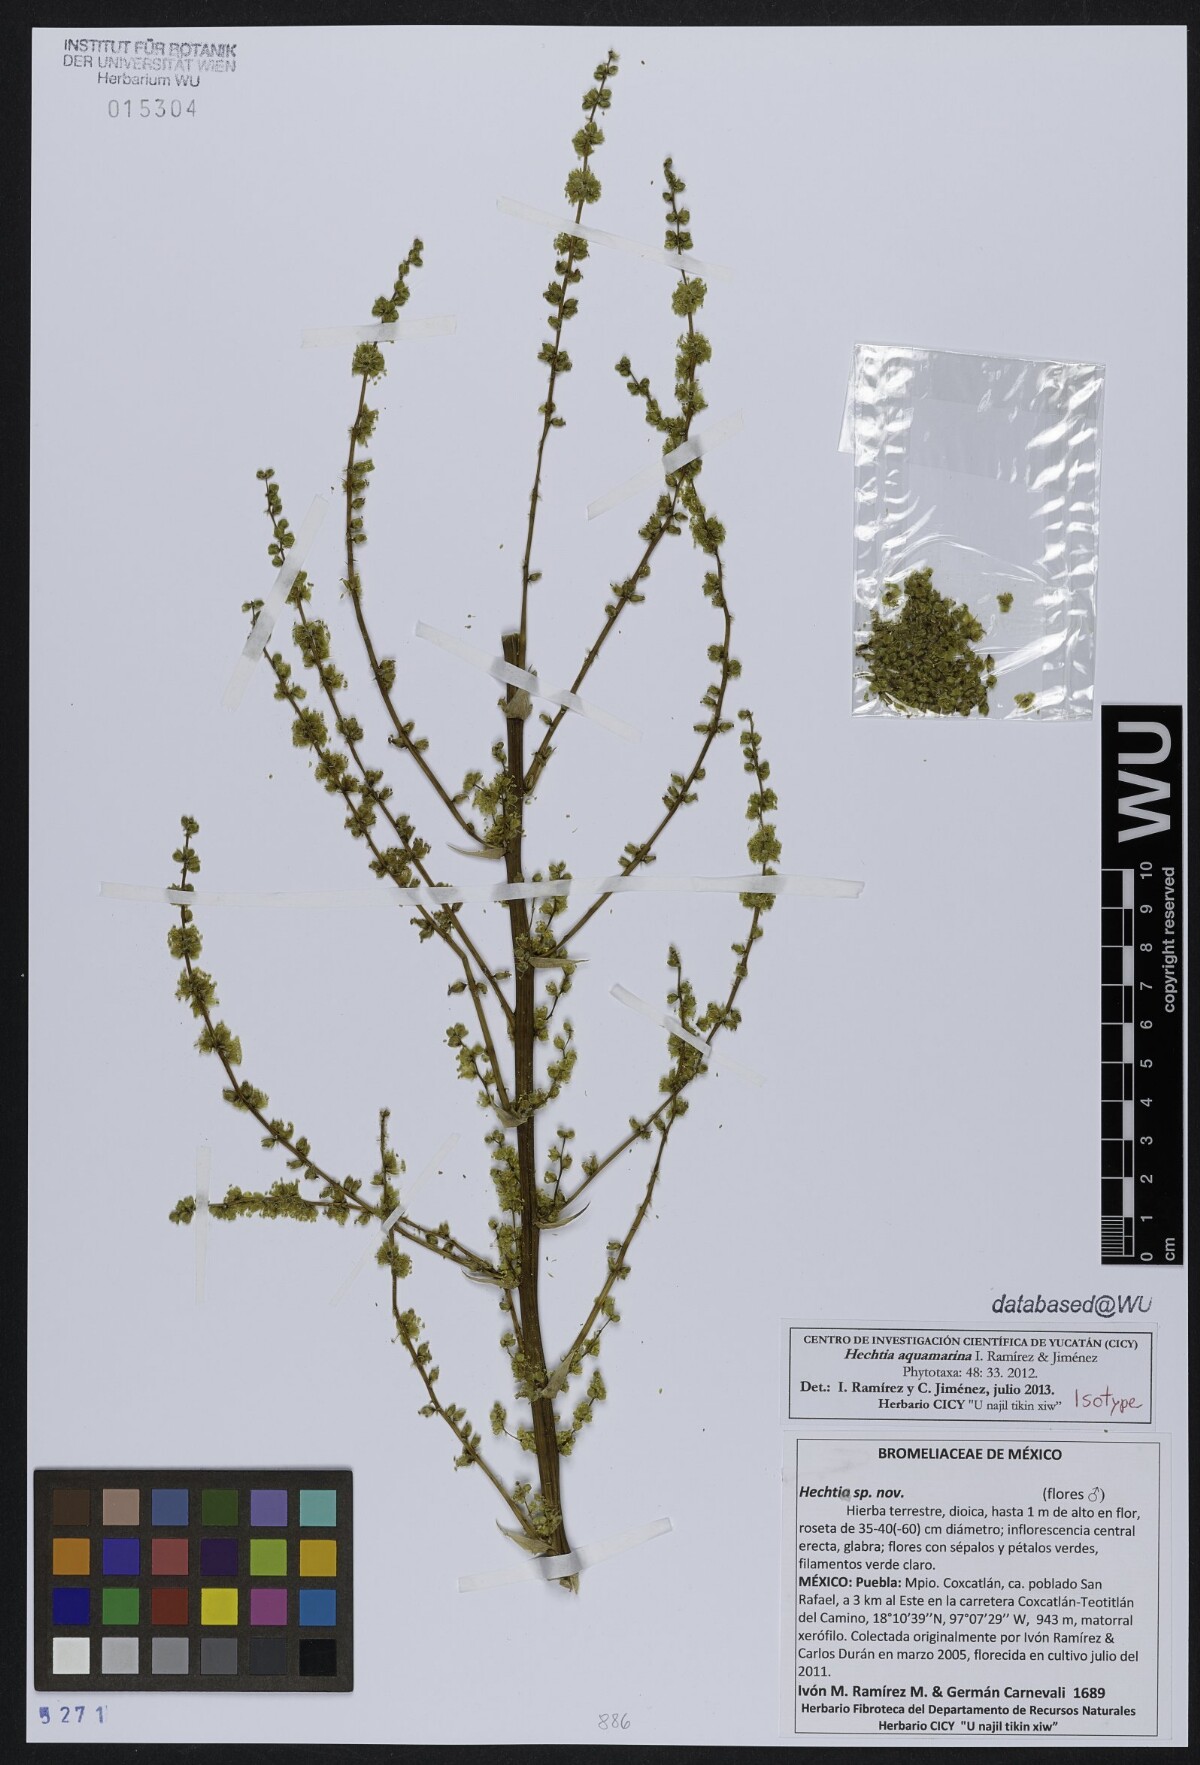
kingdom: Plantae
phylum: Tracheophyta
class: Liliopsida
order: Poales
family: Bromeliaceae
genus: Hechtia
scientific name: Hechtia aquamarina
